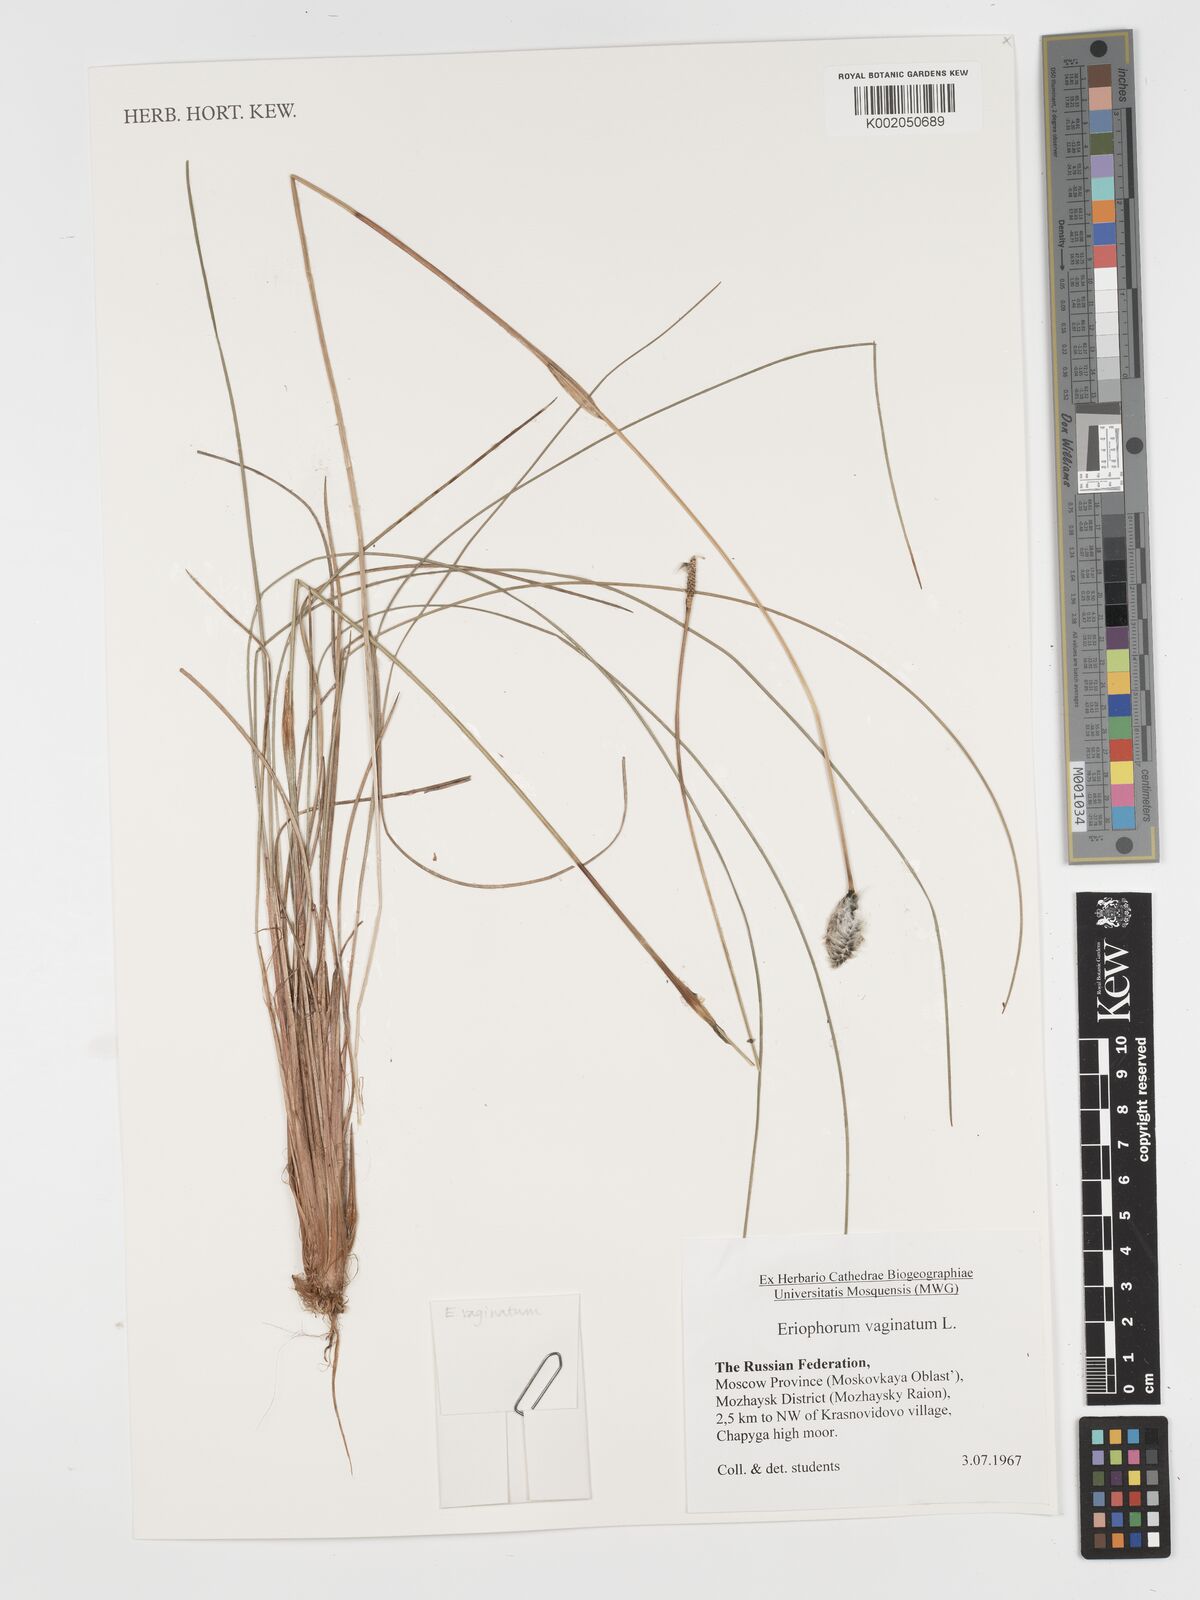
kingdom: Plantae
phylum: Tracheophyta
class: Liliopsida
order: Poales
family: Cyperaceae
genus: Eriophorum
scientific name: Eriophorum vaginatum
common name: Hare's-tail cottongrass
